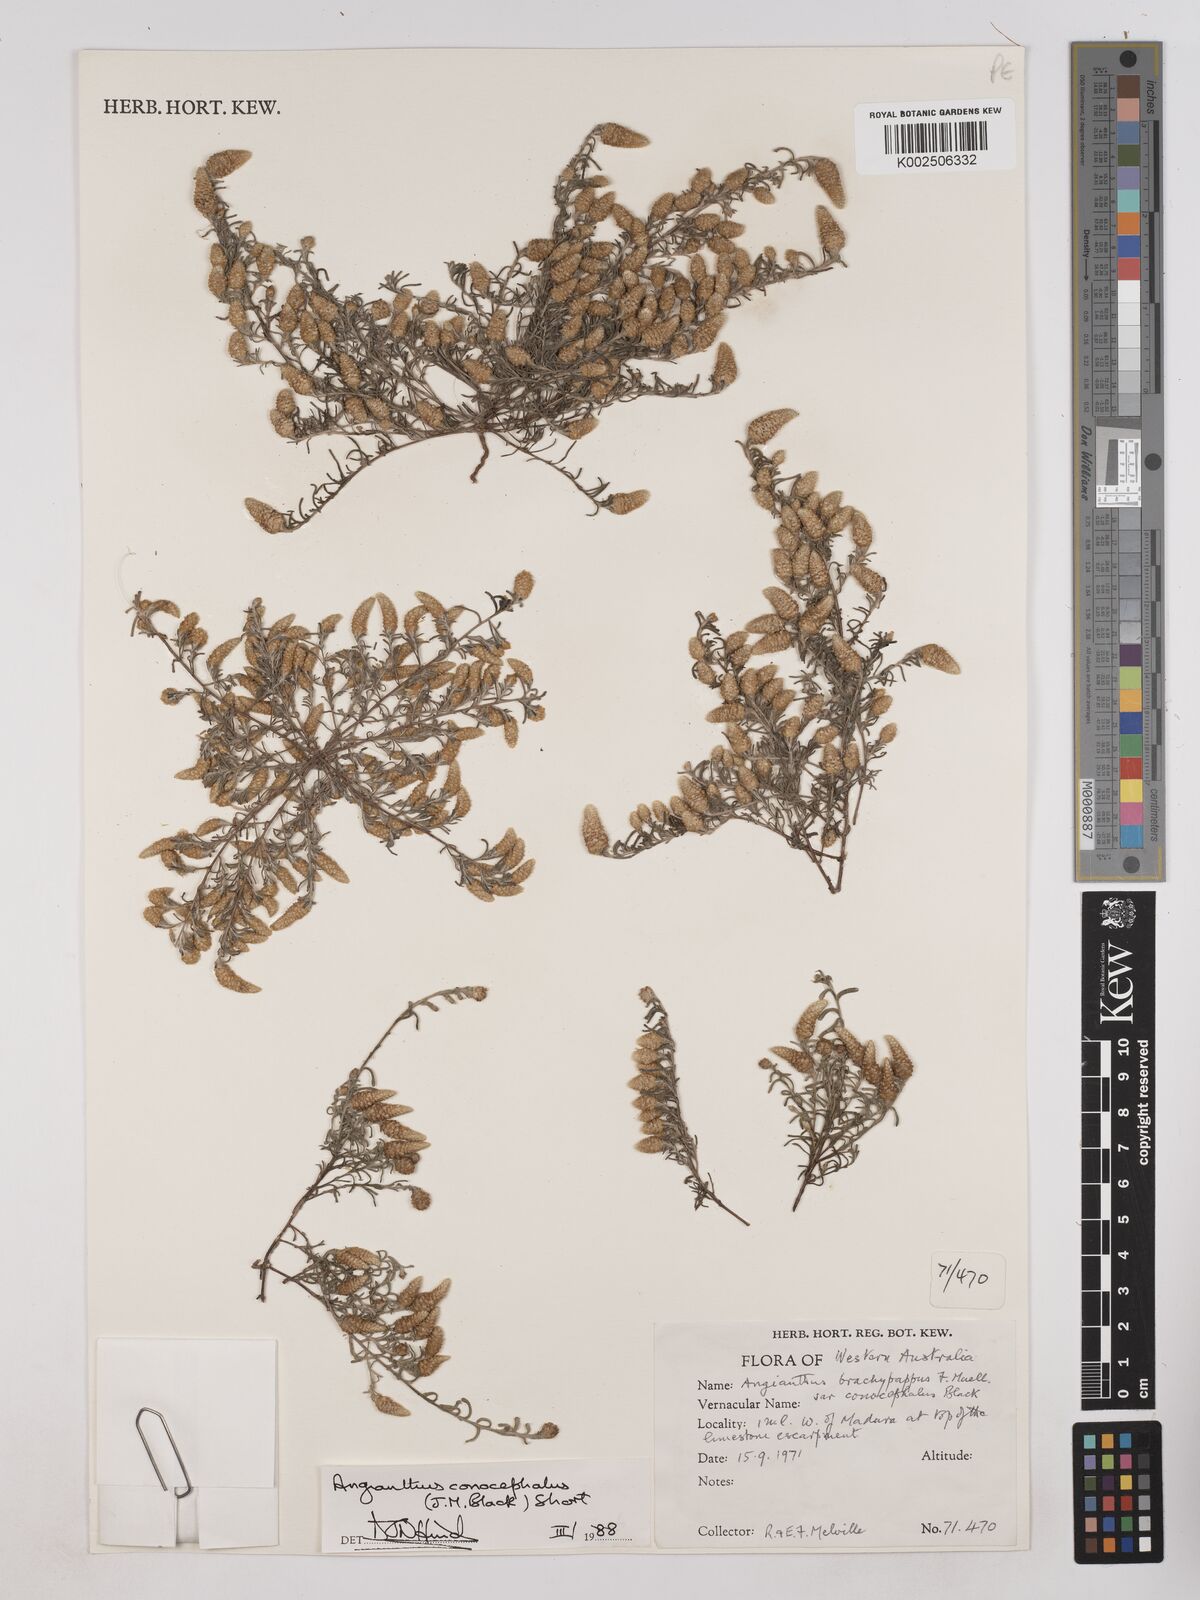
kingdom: Plantae
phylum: Tracheophyta
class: Magnoliopsida
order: Asterales
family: Asteraceae
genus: Angianthus
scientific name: Angianthus conocephalus
